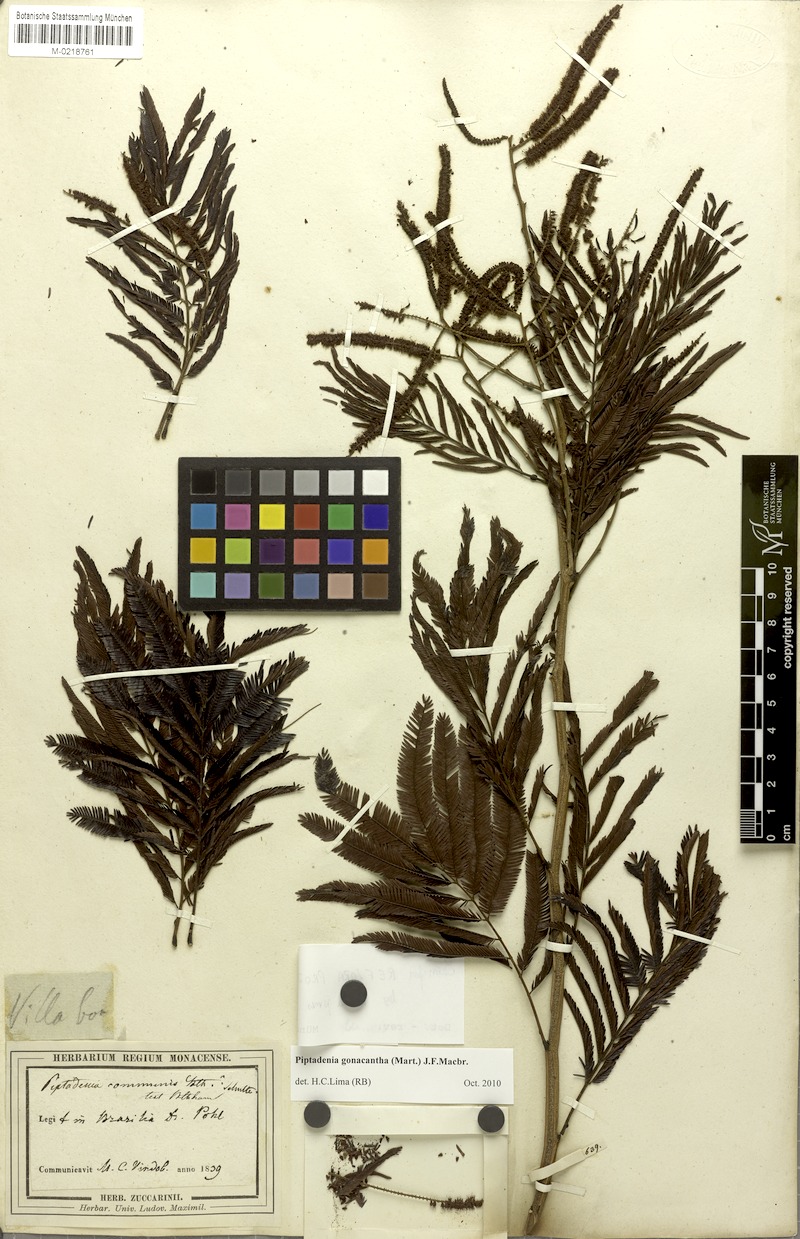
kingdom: Plantae
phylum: Tracheophyta
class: Magnoliopsida
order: Fabales
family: Fabaceae
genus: Piptadenia
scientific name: Piptadenia gonoacantha
